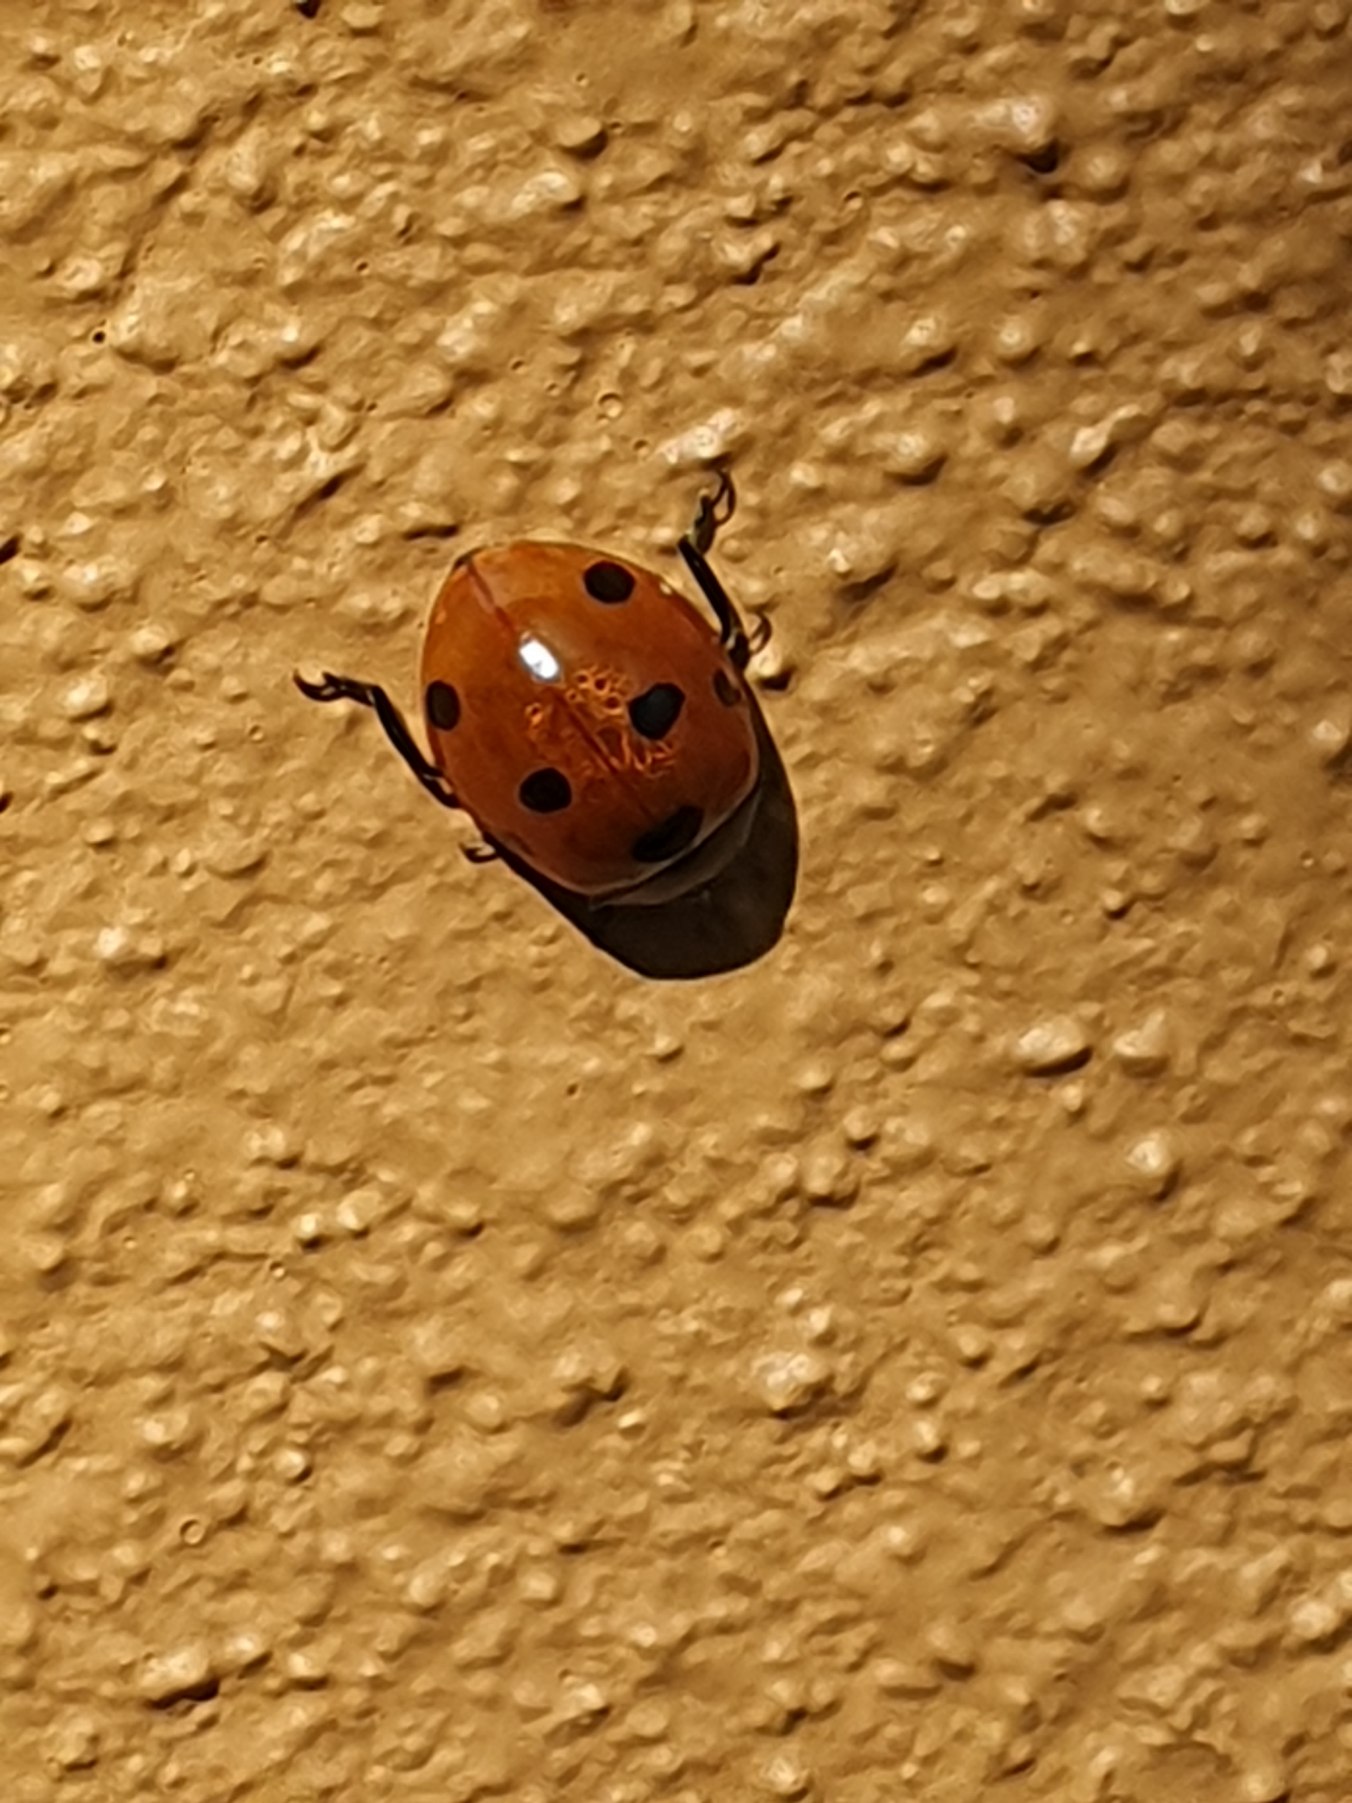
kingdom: Animalia
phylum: Arthropoda
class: Insecta
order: Coleoptera
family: Coccinellidae
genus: Coccinella
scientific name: Coccinella septempunctata
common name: Syvplettet mariehøne
